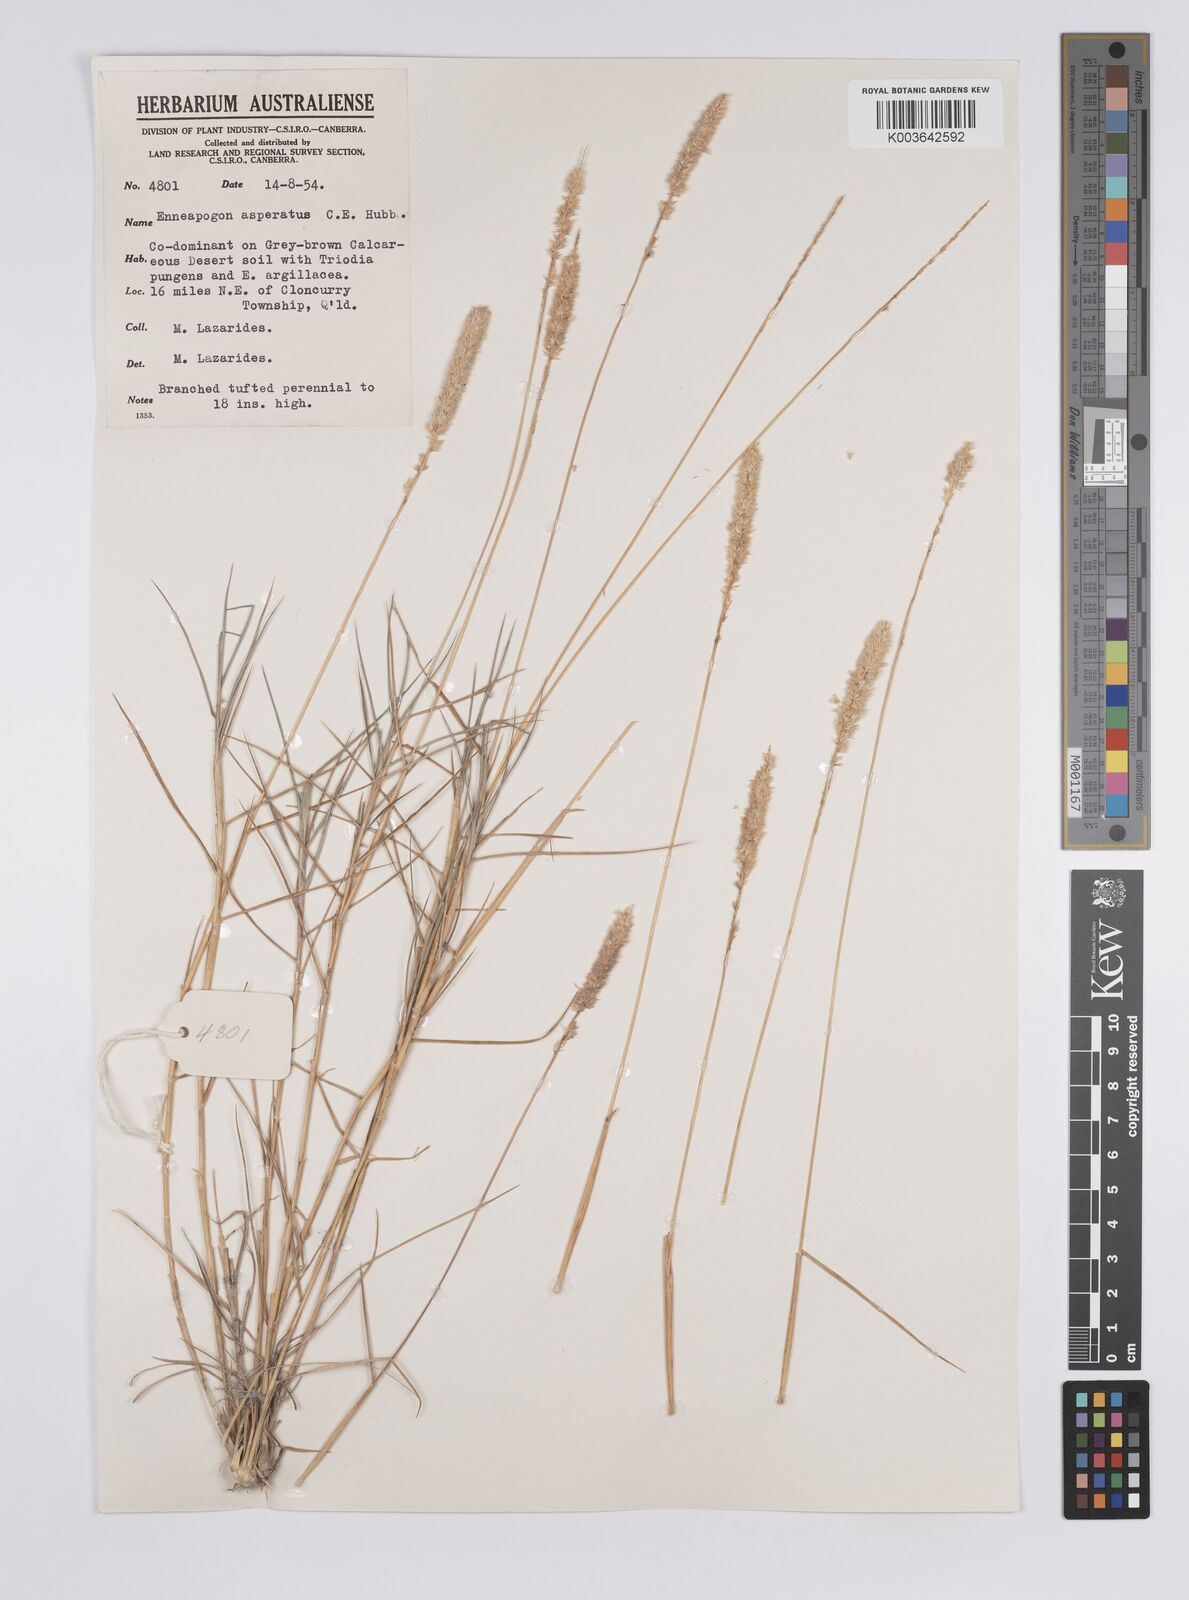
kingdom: Plantae
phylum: Tracheophyta
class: Liliopsida
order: Poales
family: Poaceae
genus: Enneapogon
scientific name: Enneapogon asperatus
